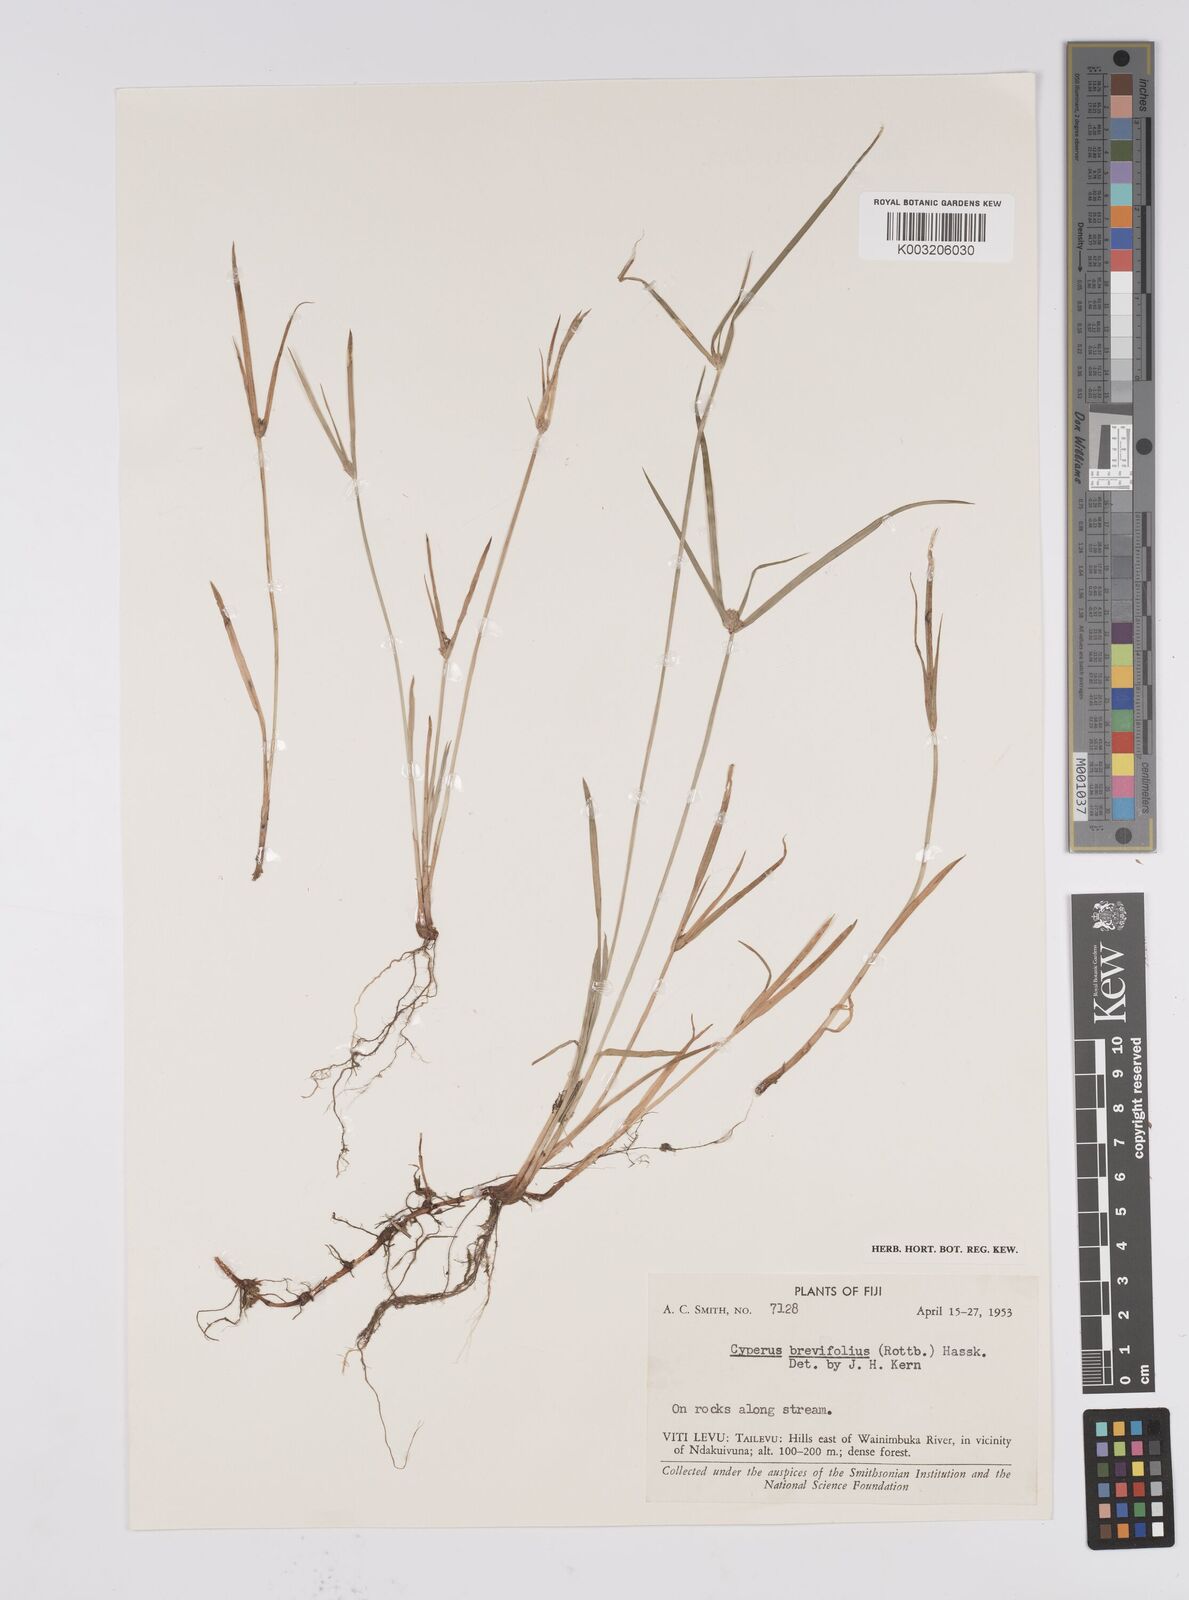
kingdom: Plantae
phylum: Tracheophyta
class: Liliopsida
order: Poales
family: Cyperaceae
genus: Cyperus
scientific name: Cyperus brevifolius
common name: Globe kyllinga
